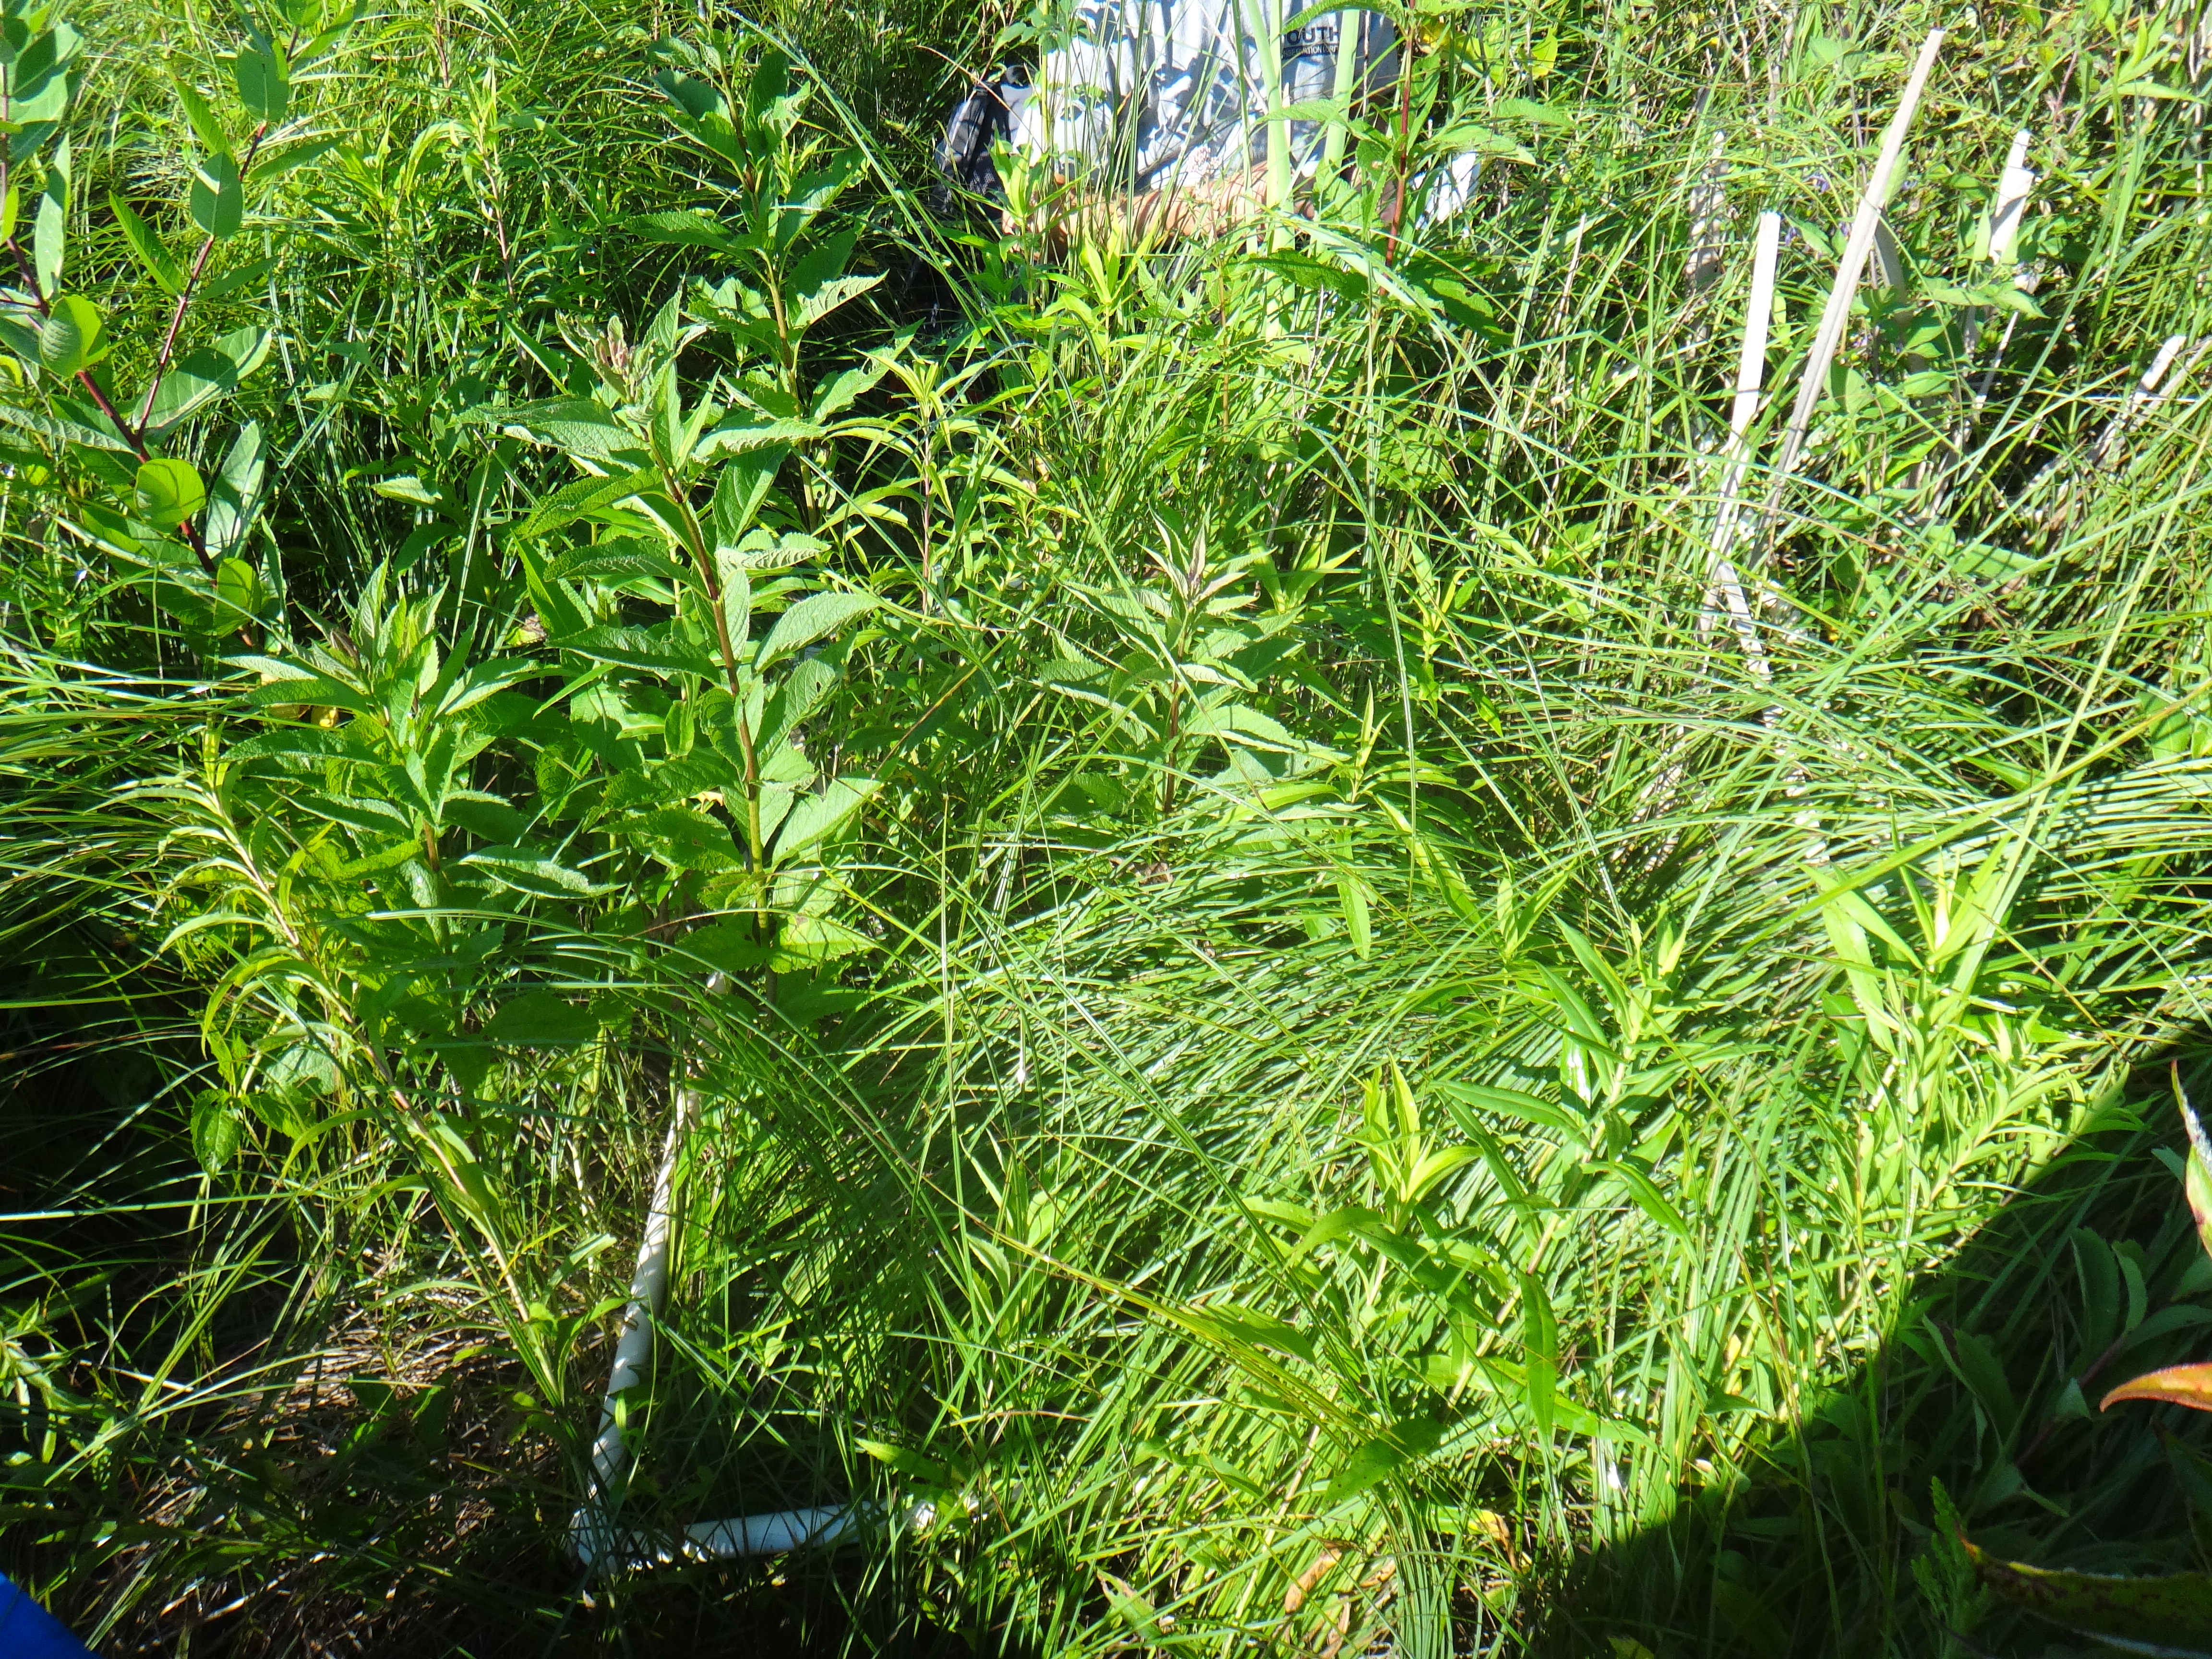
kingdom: Plantae
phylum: Tracheophyta
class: Magnoliopsida
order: Cornales
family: Cornaceae
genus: Cornus
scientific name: Cornus foemina
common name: Swamp dogwood
